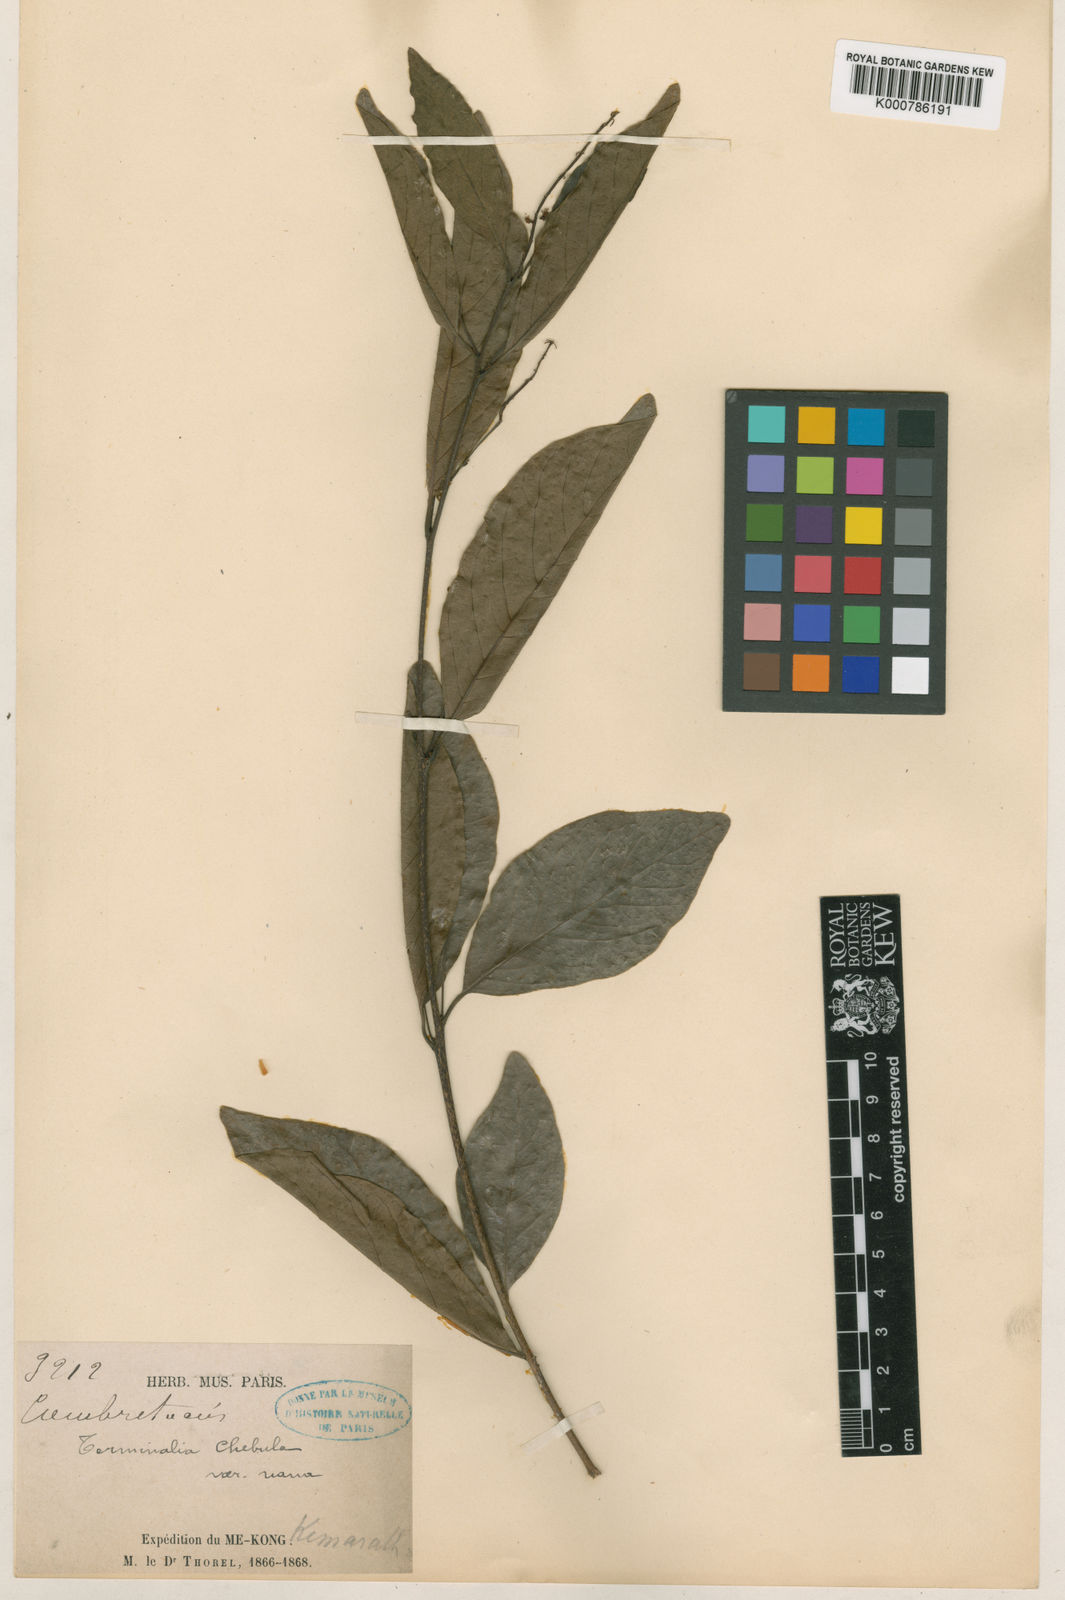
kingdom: Plantae
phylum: Tracheophyta
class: Magnoliopsida
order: Myrtales
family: Combretaceae
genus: Terminalia
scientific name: Terminalia chebula
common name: Myrobalan
